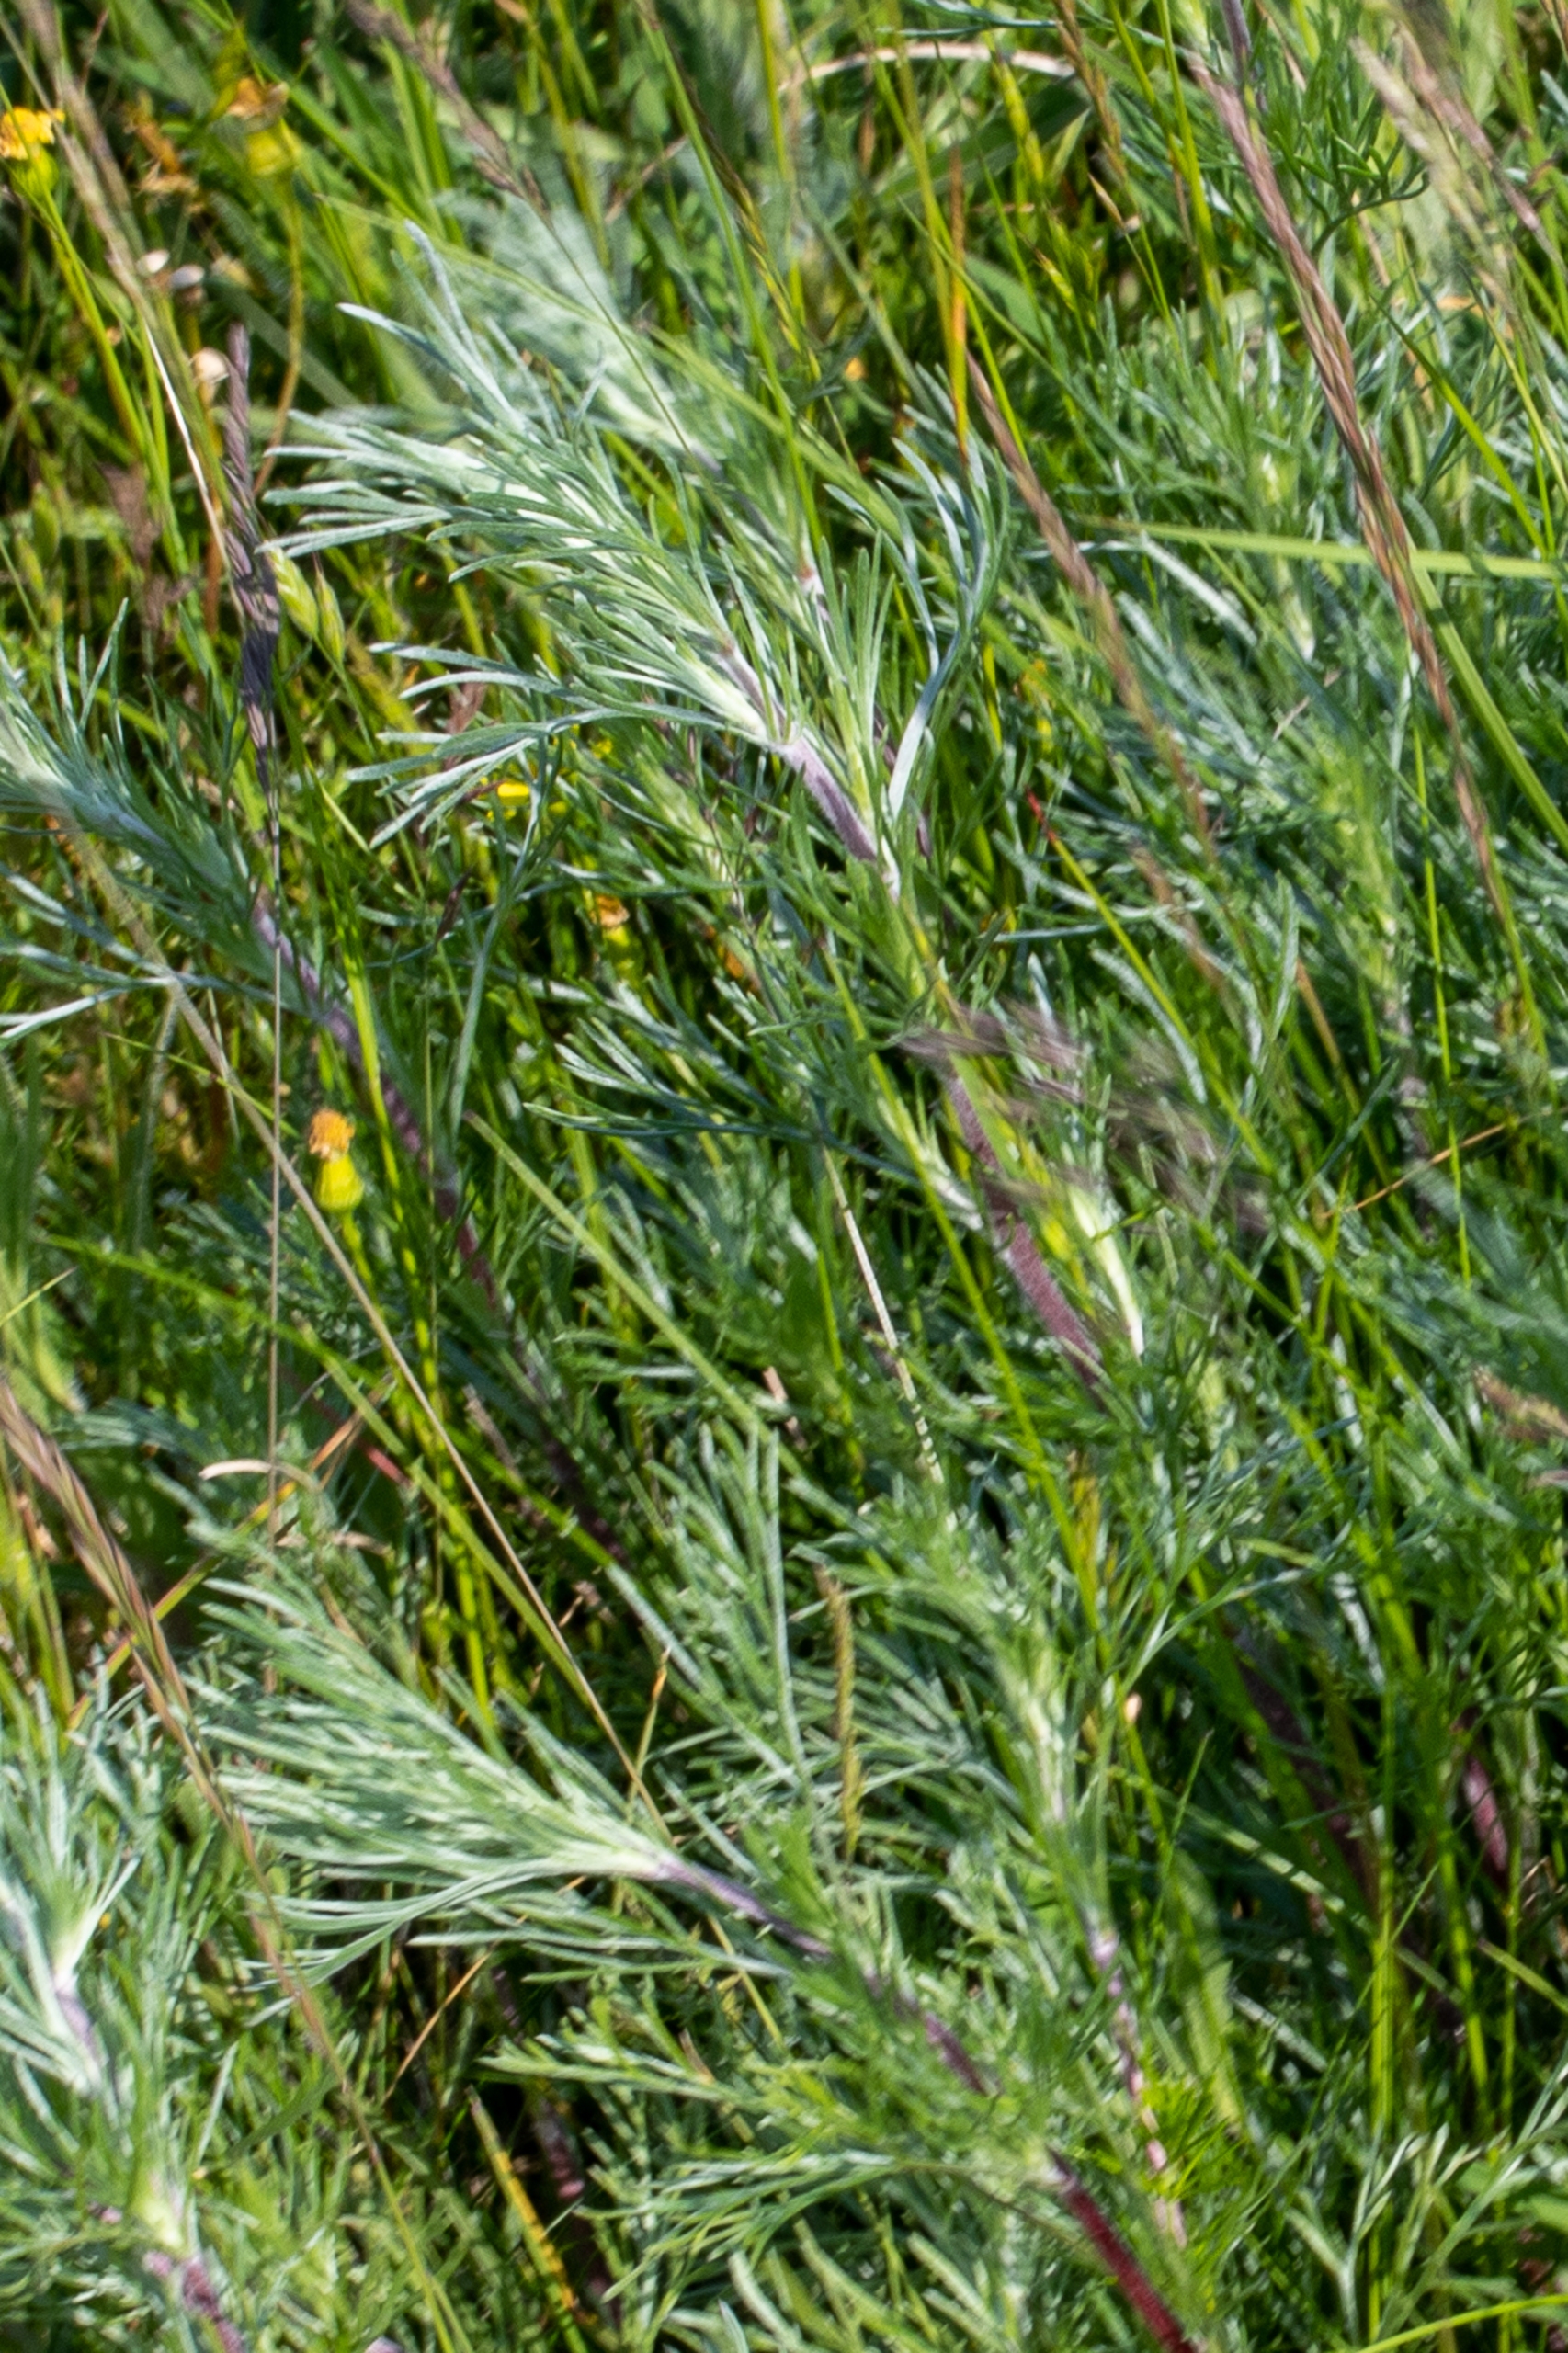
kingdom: Plantae
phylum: Tracheophyta
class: Magnoliopsida
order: Asterales
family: Asteraceae
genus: Artemisia
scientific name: Artemisia campestris
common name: Mark-bynke
